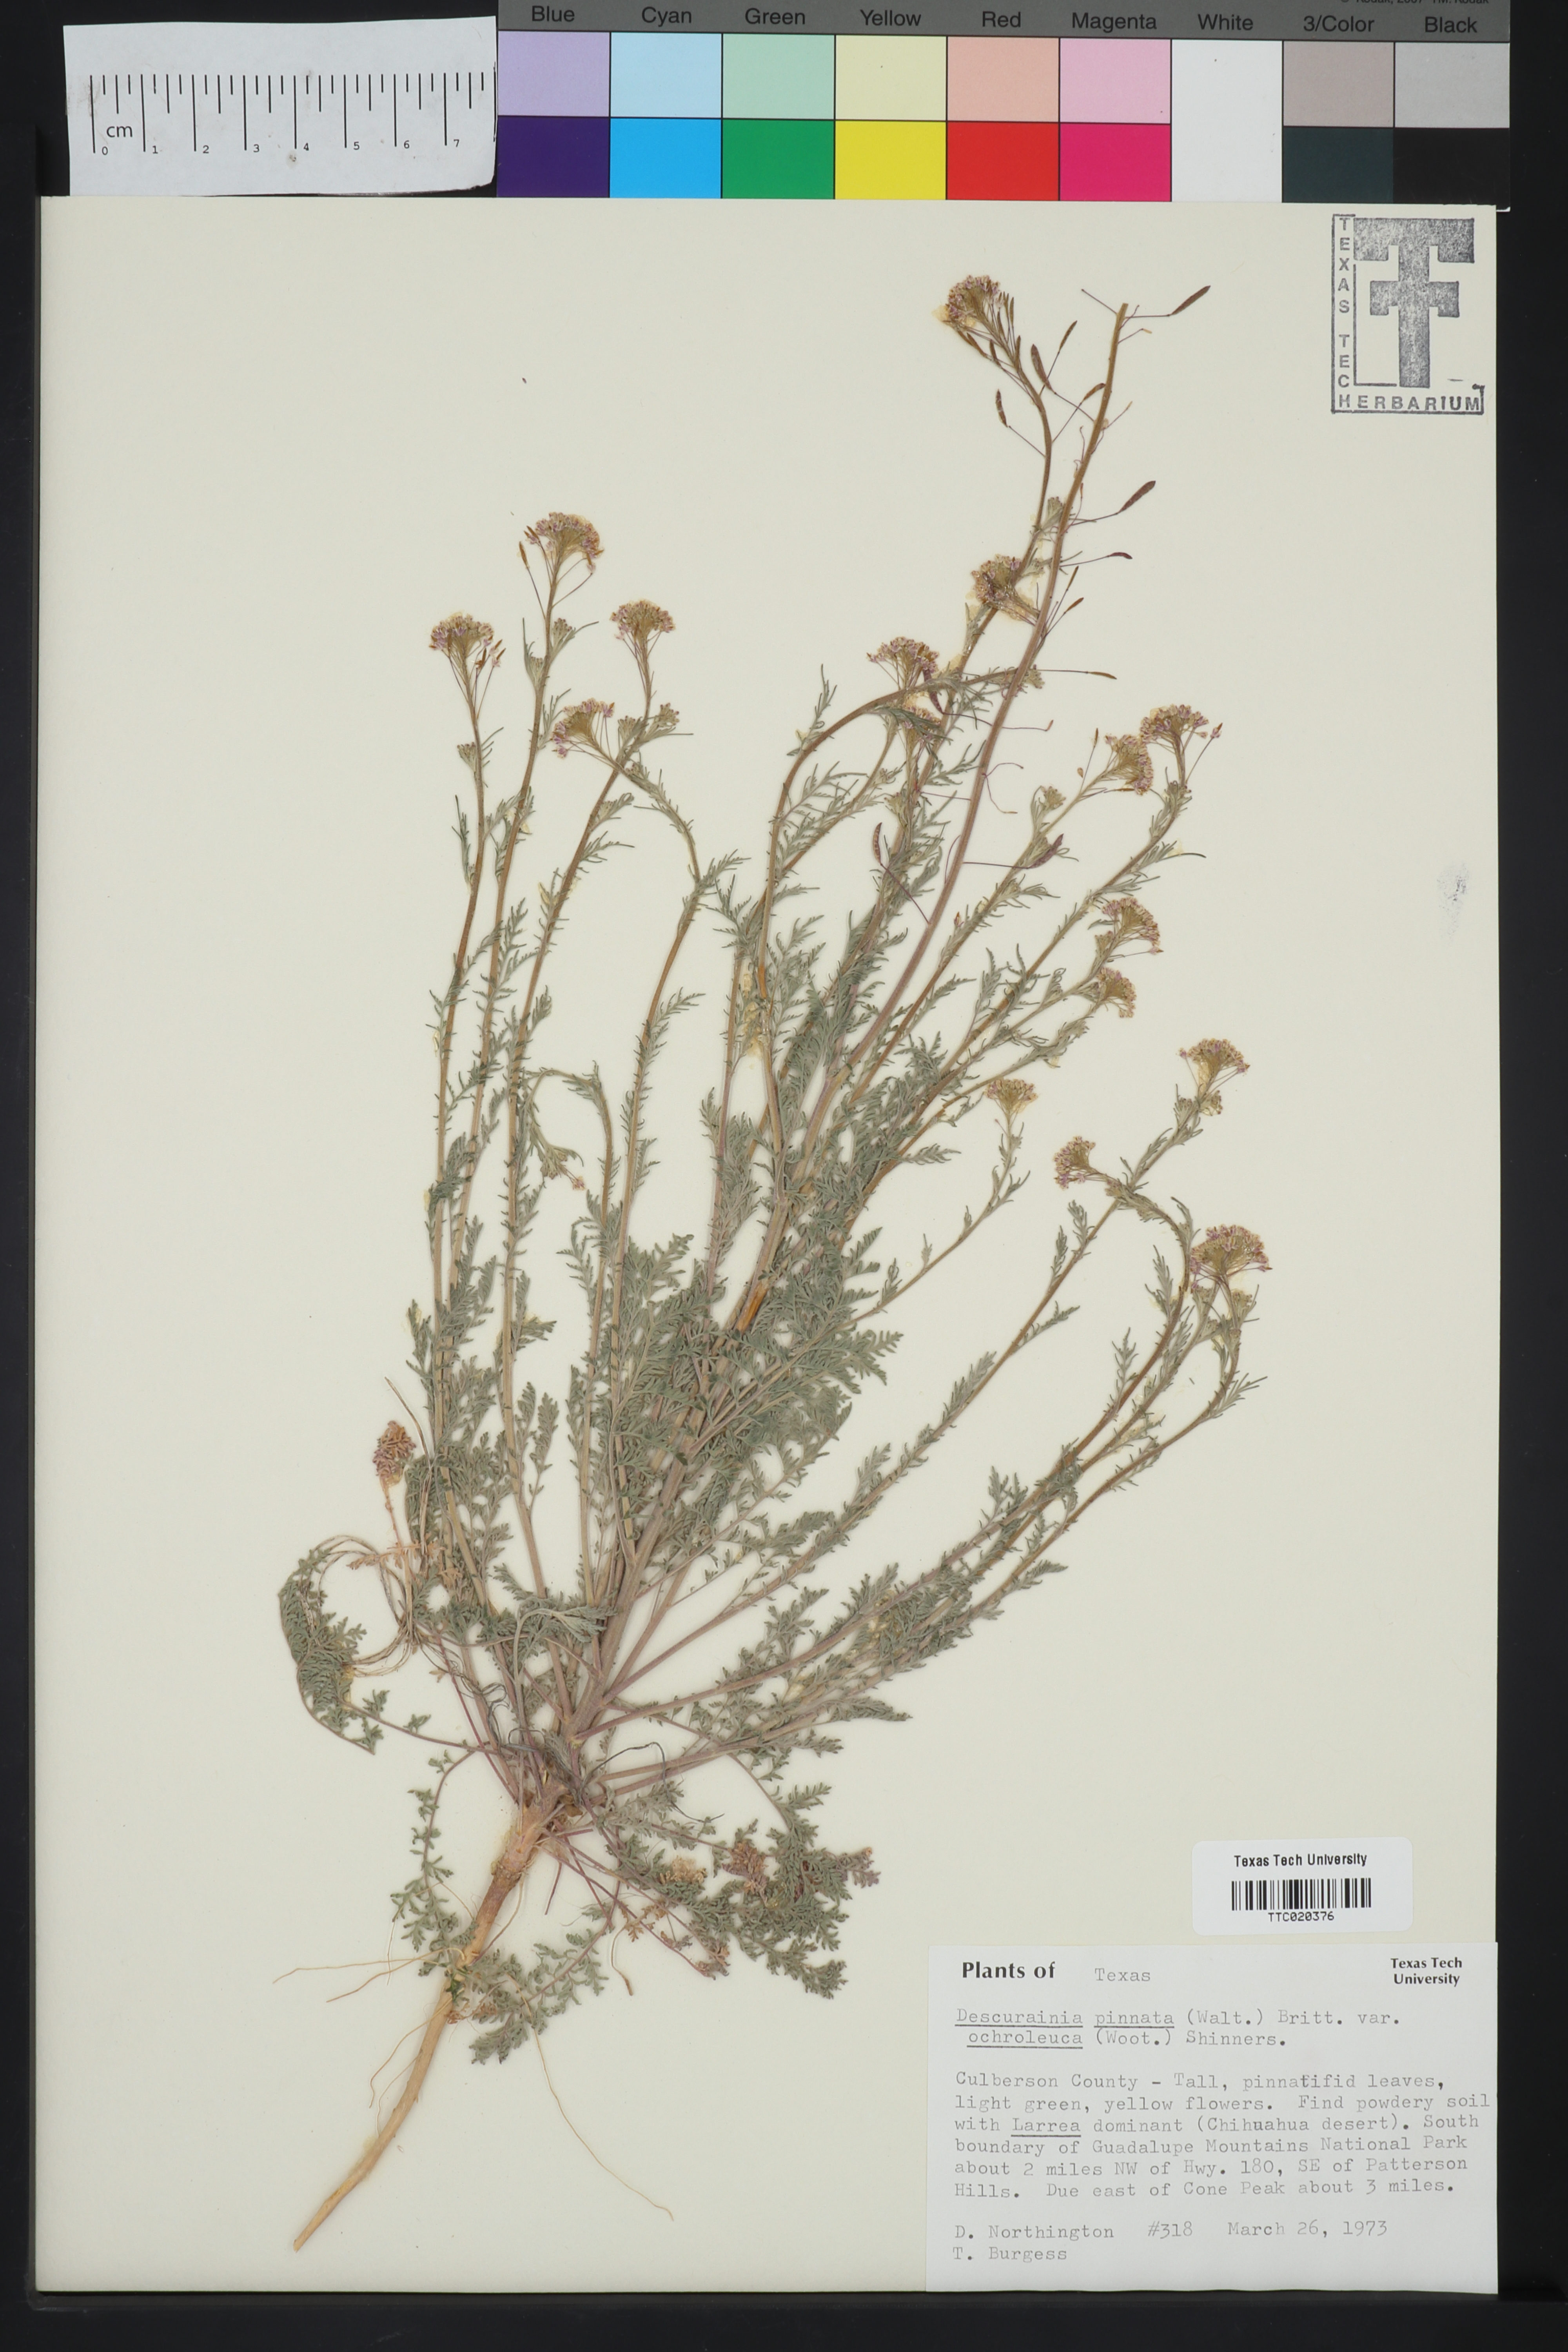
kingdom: Plantae
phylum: Tracheophyta
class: Magnoliopsida
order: Brassicales
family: Brassicaceae
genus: Descurainia
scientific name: Descurainia pinnata
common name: Western tansy mustard
